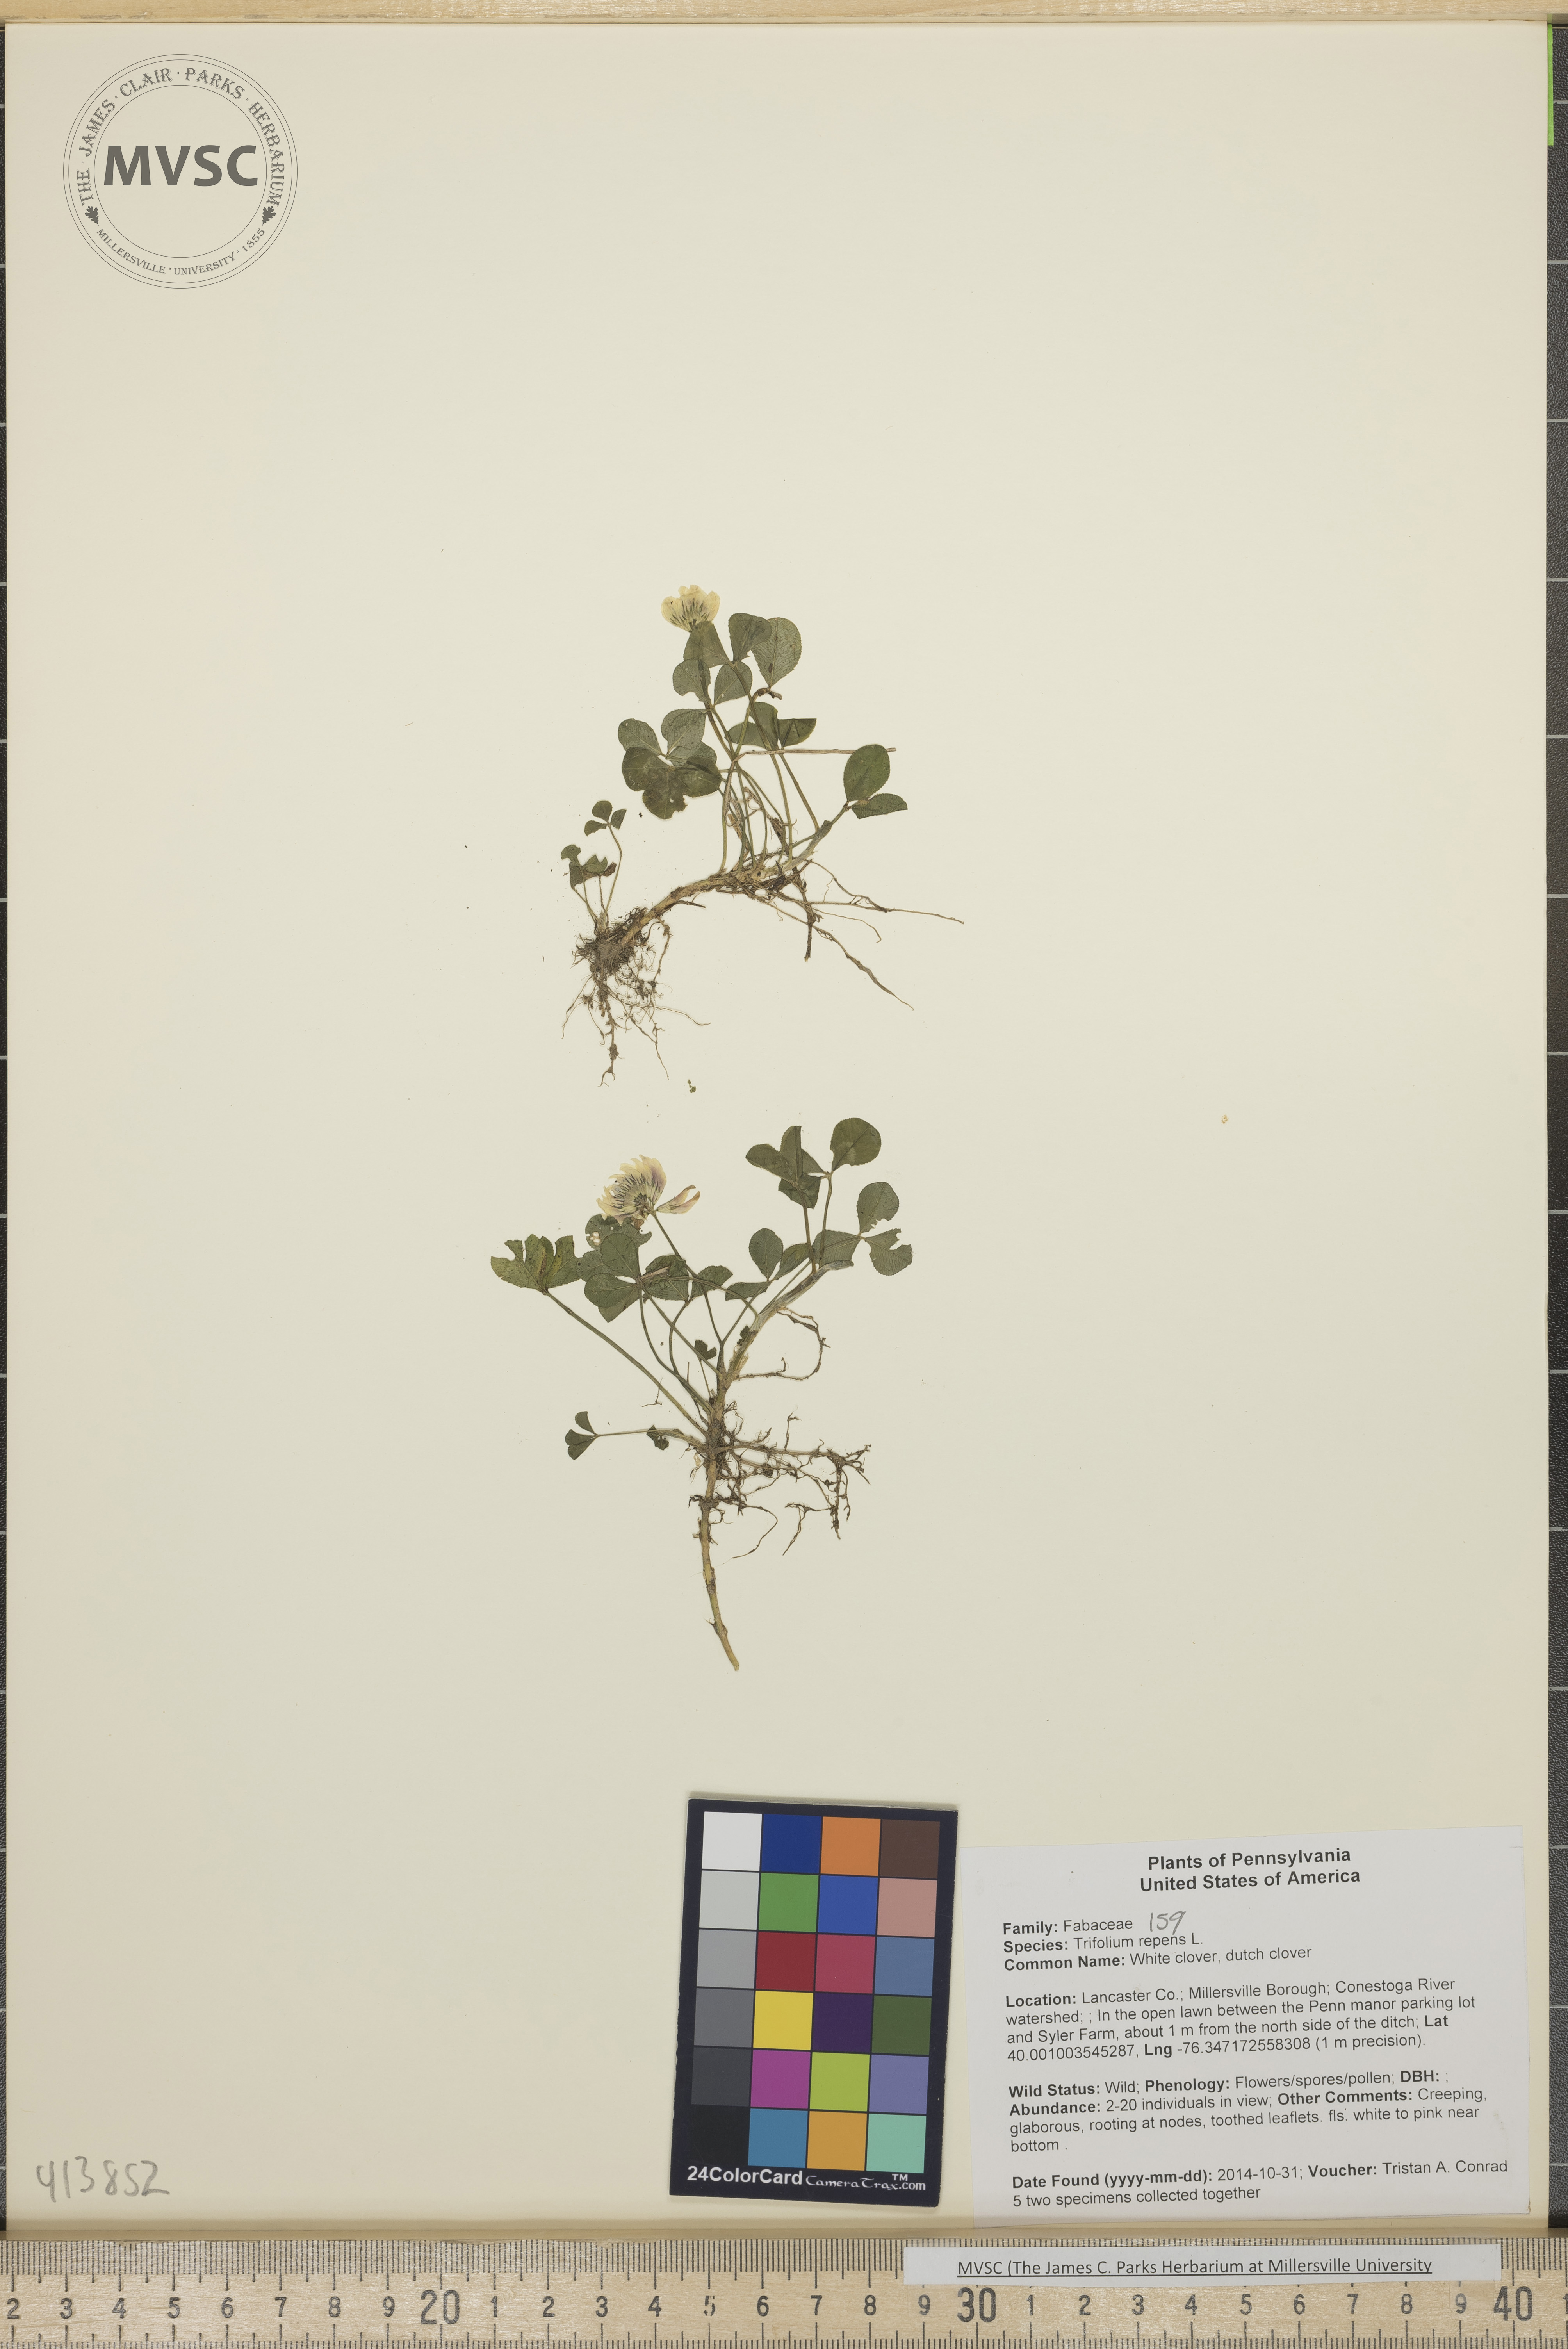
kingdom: Plantae
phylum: Tracheophyta
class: Magnoliopsida
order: Fabales
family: Fabaceae
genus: Trifolium
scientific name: Trifolium repens
